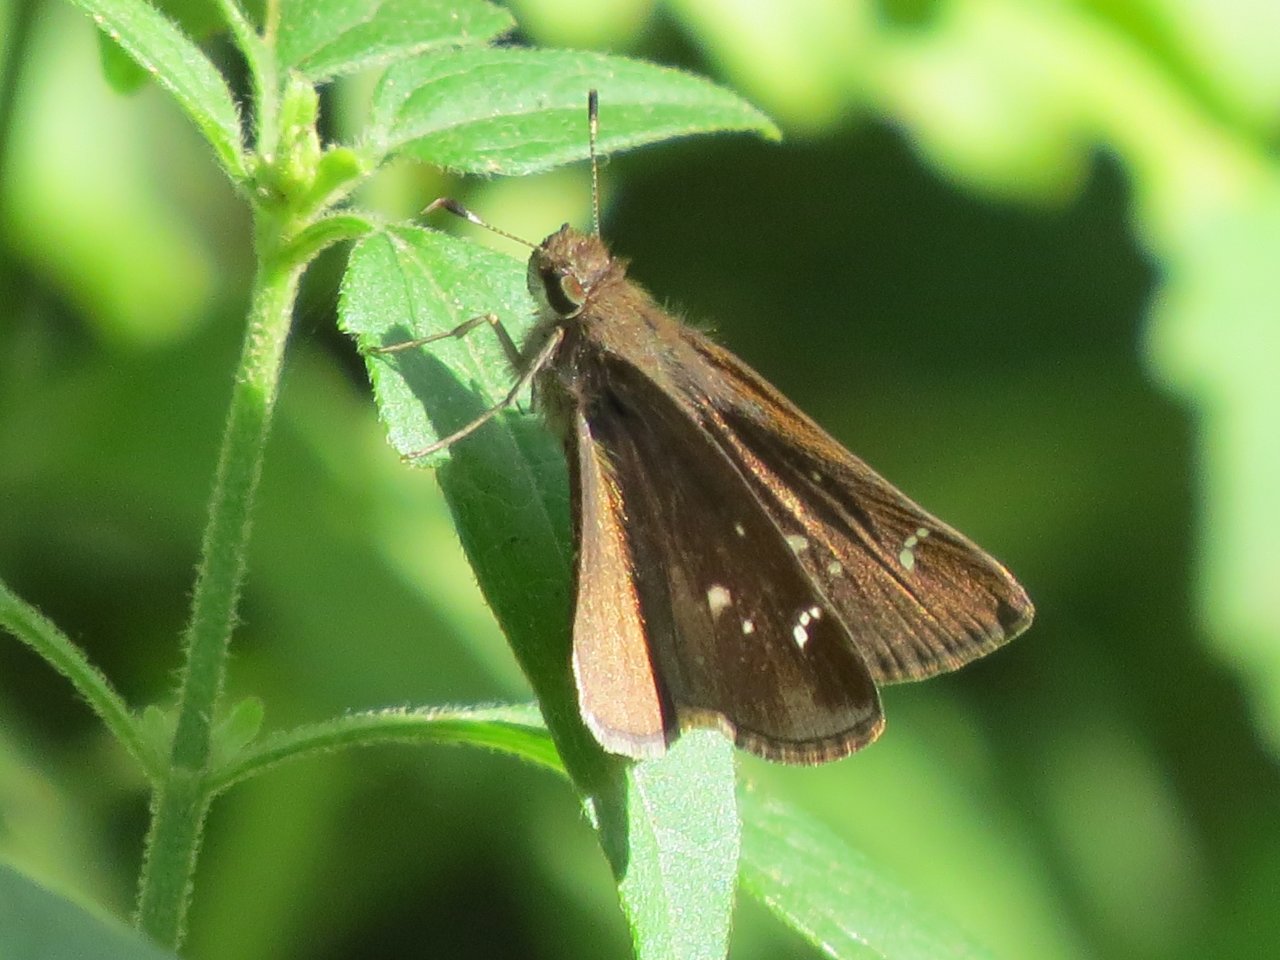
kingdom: Animalia
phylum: Arthropoda
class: Insecta
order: Lepidoptera
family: Hesperiidae
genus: Lerema
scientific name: Lerema accius
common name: Clouded Skipper
